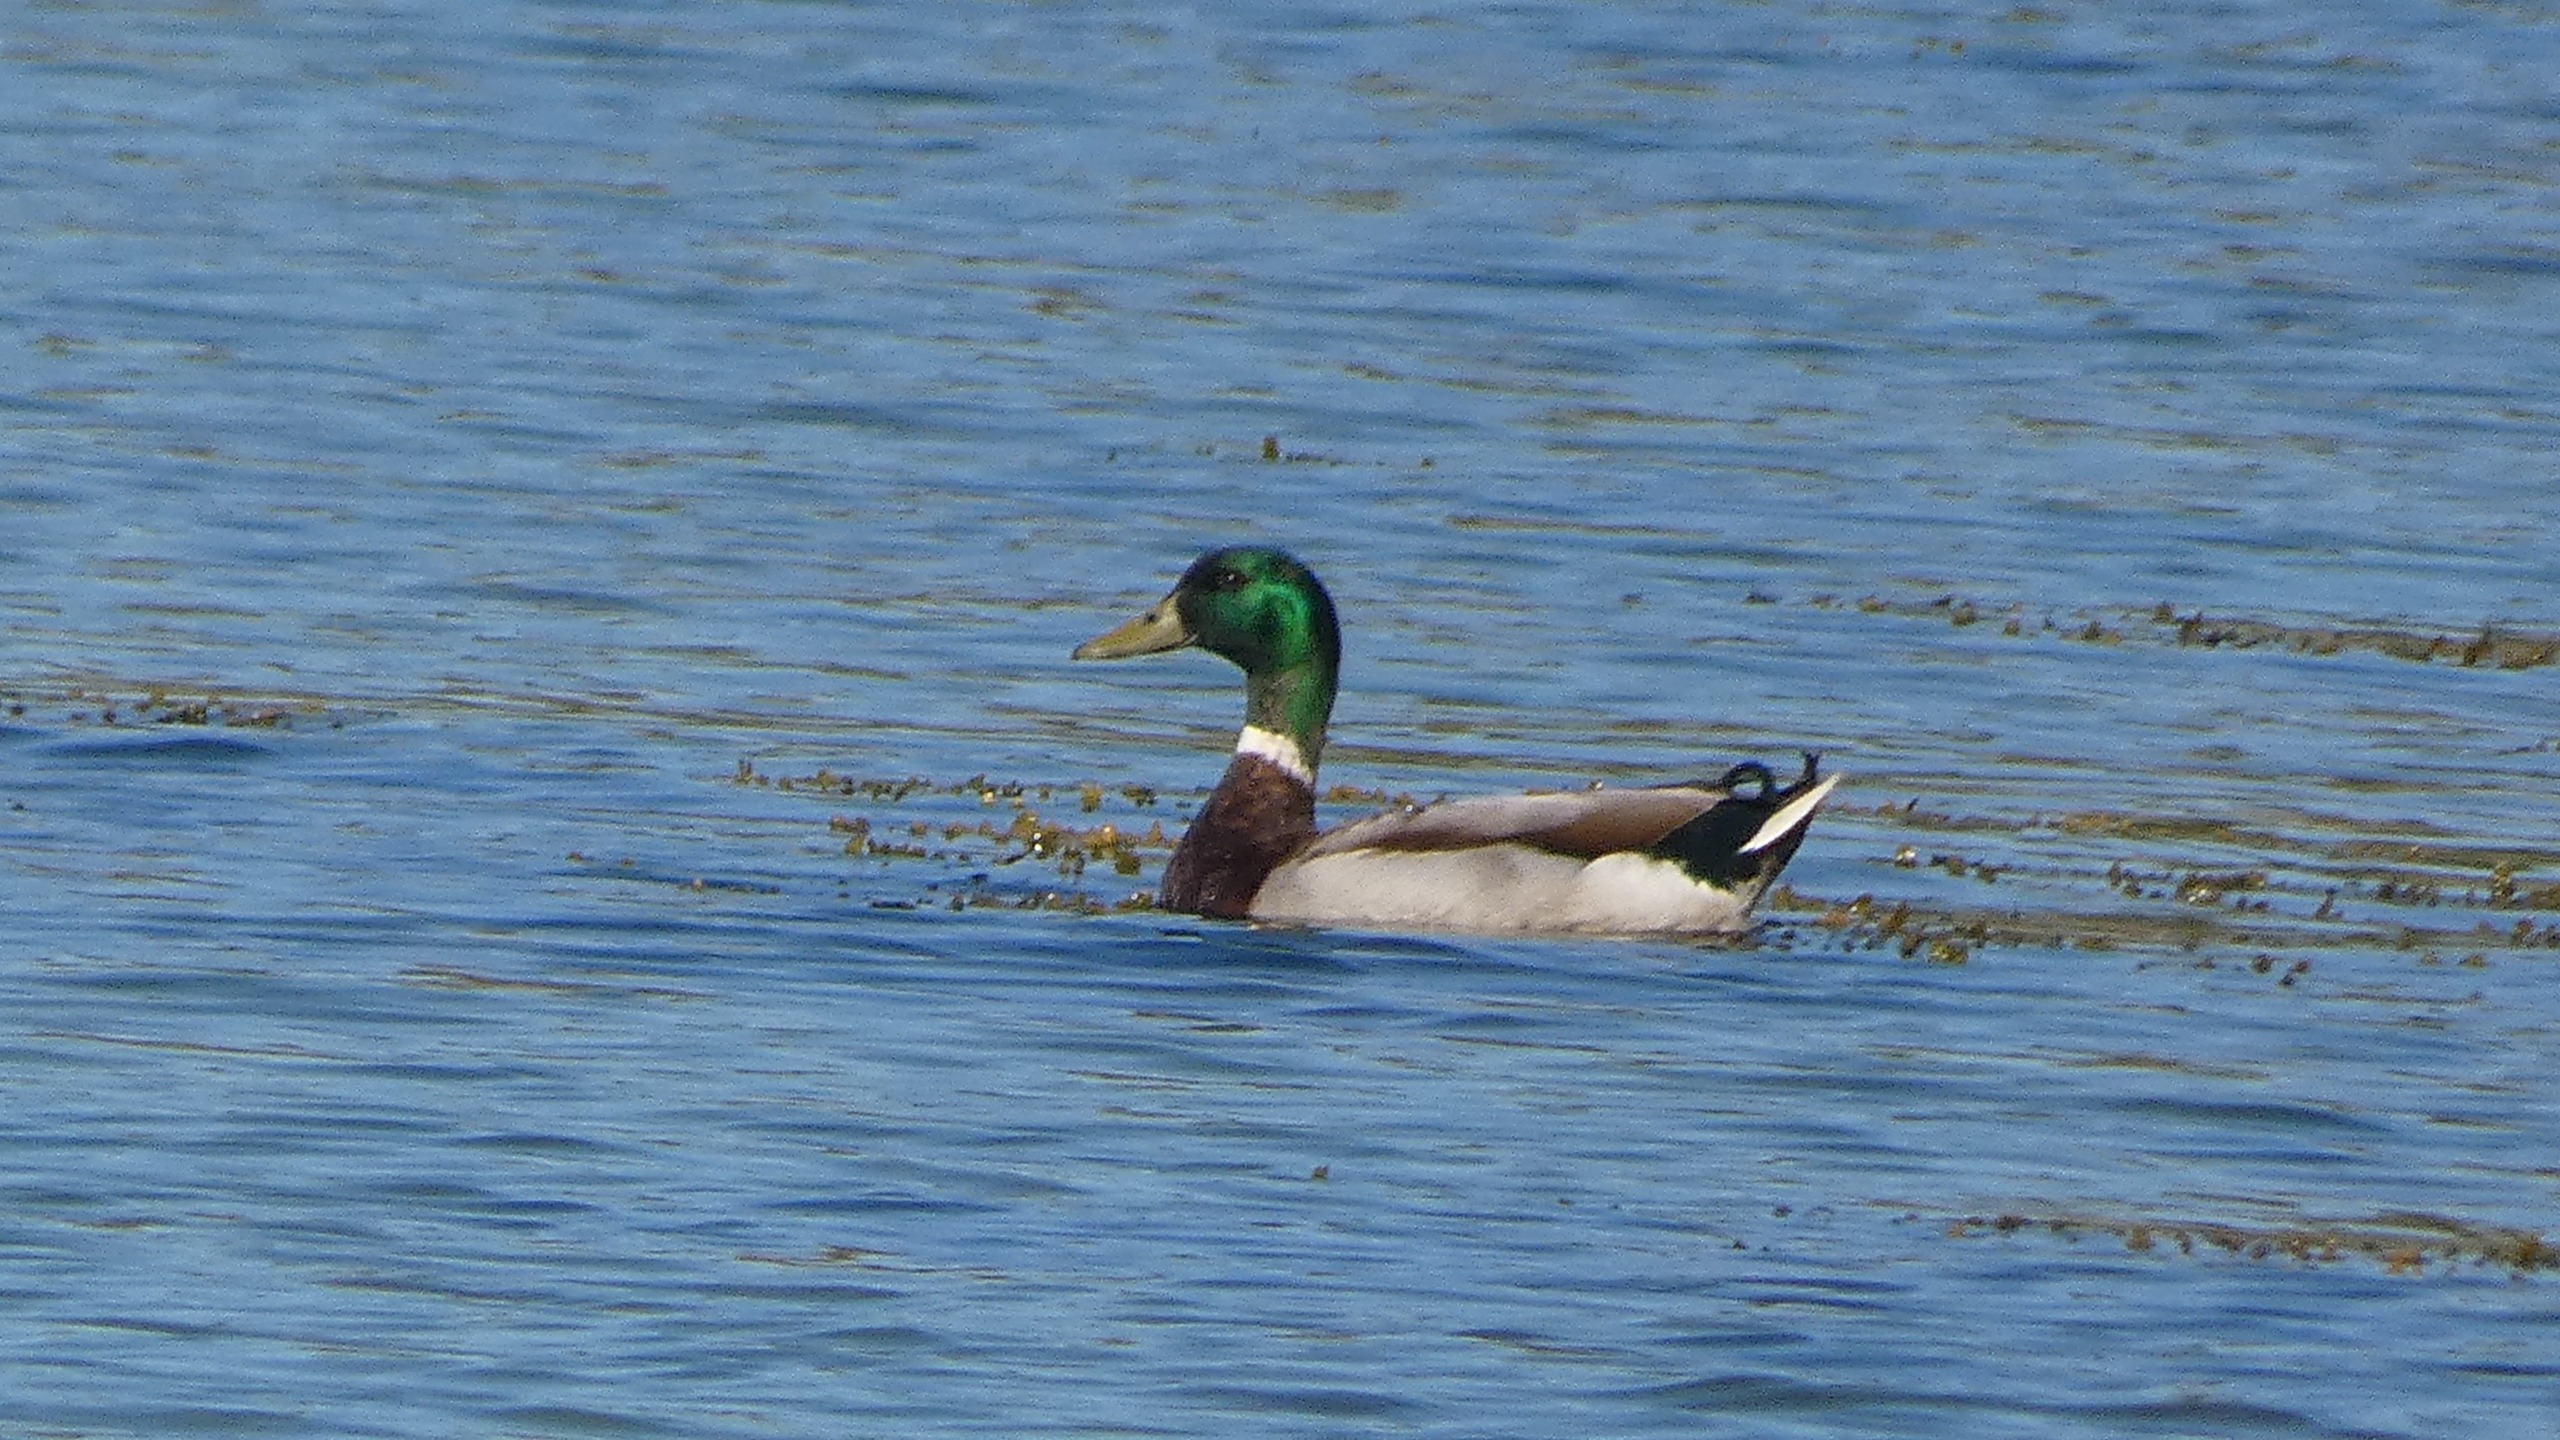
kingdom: Animalia
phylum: Chordata
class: Aves
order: Anseriformes
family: Anatidae
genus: Anas
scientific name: Anas platyrhynchos
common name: Gråand
